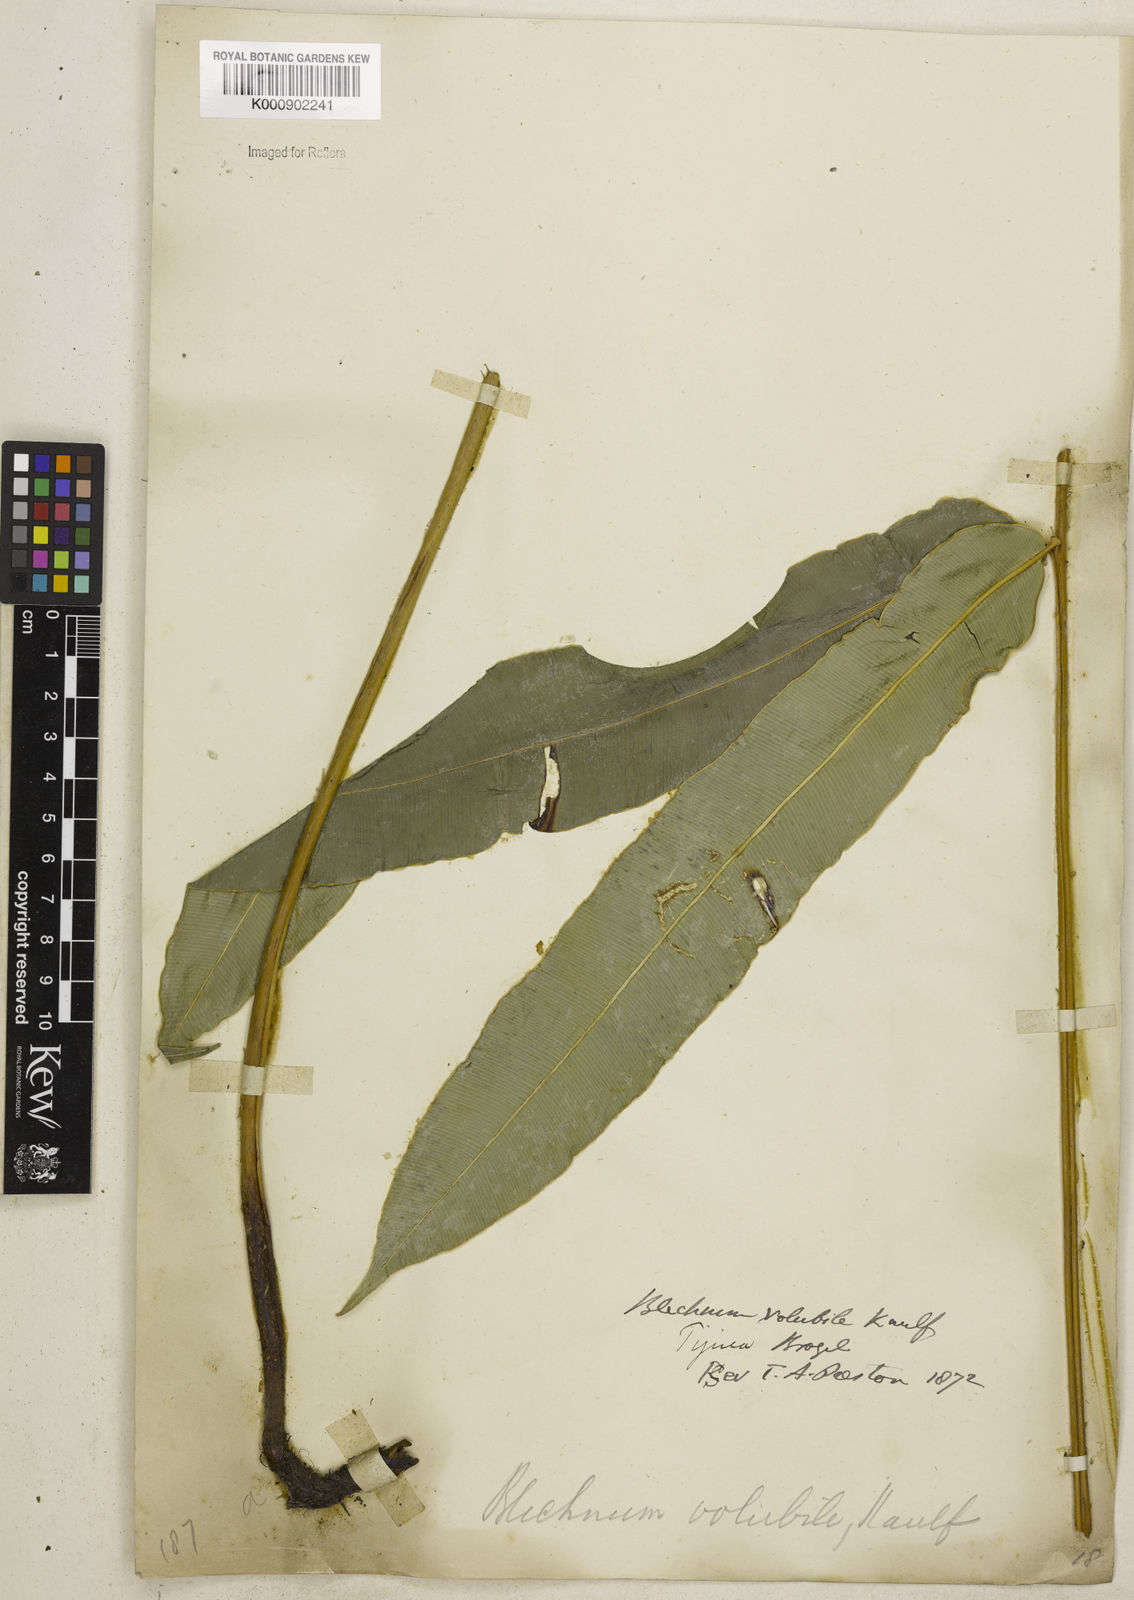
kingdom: Plantae
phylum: Tracheophyta
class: Polypodiopsida
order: Polypodiales
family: Blechnaceae
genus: Salpichlaena
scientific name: Salpichlaena volubilis
